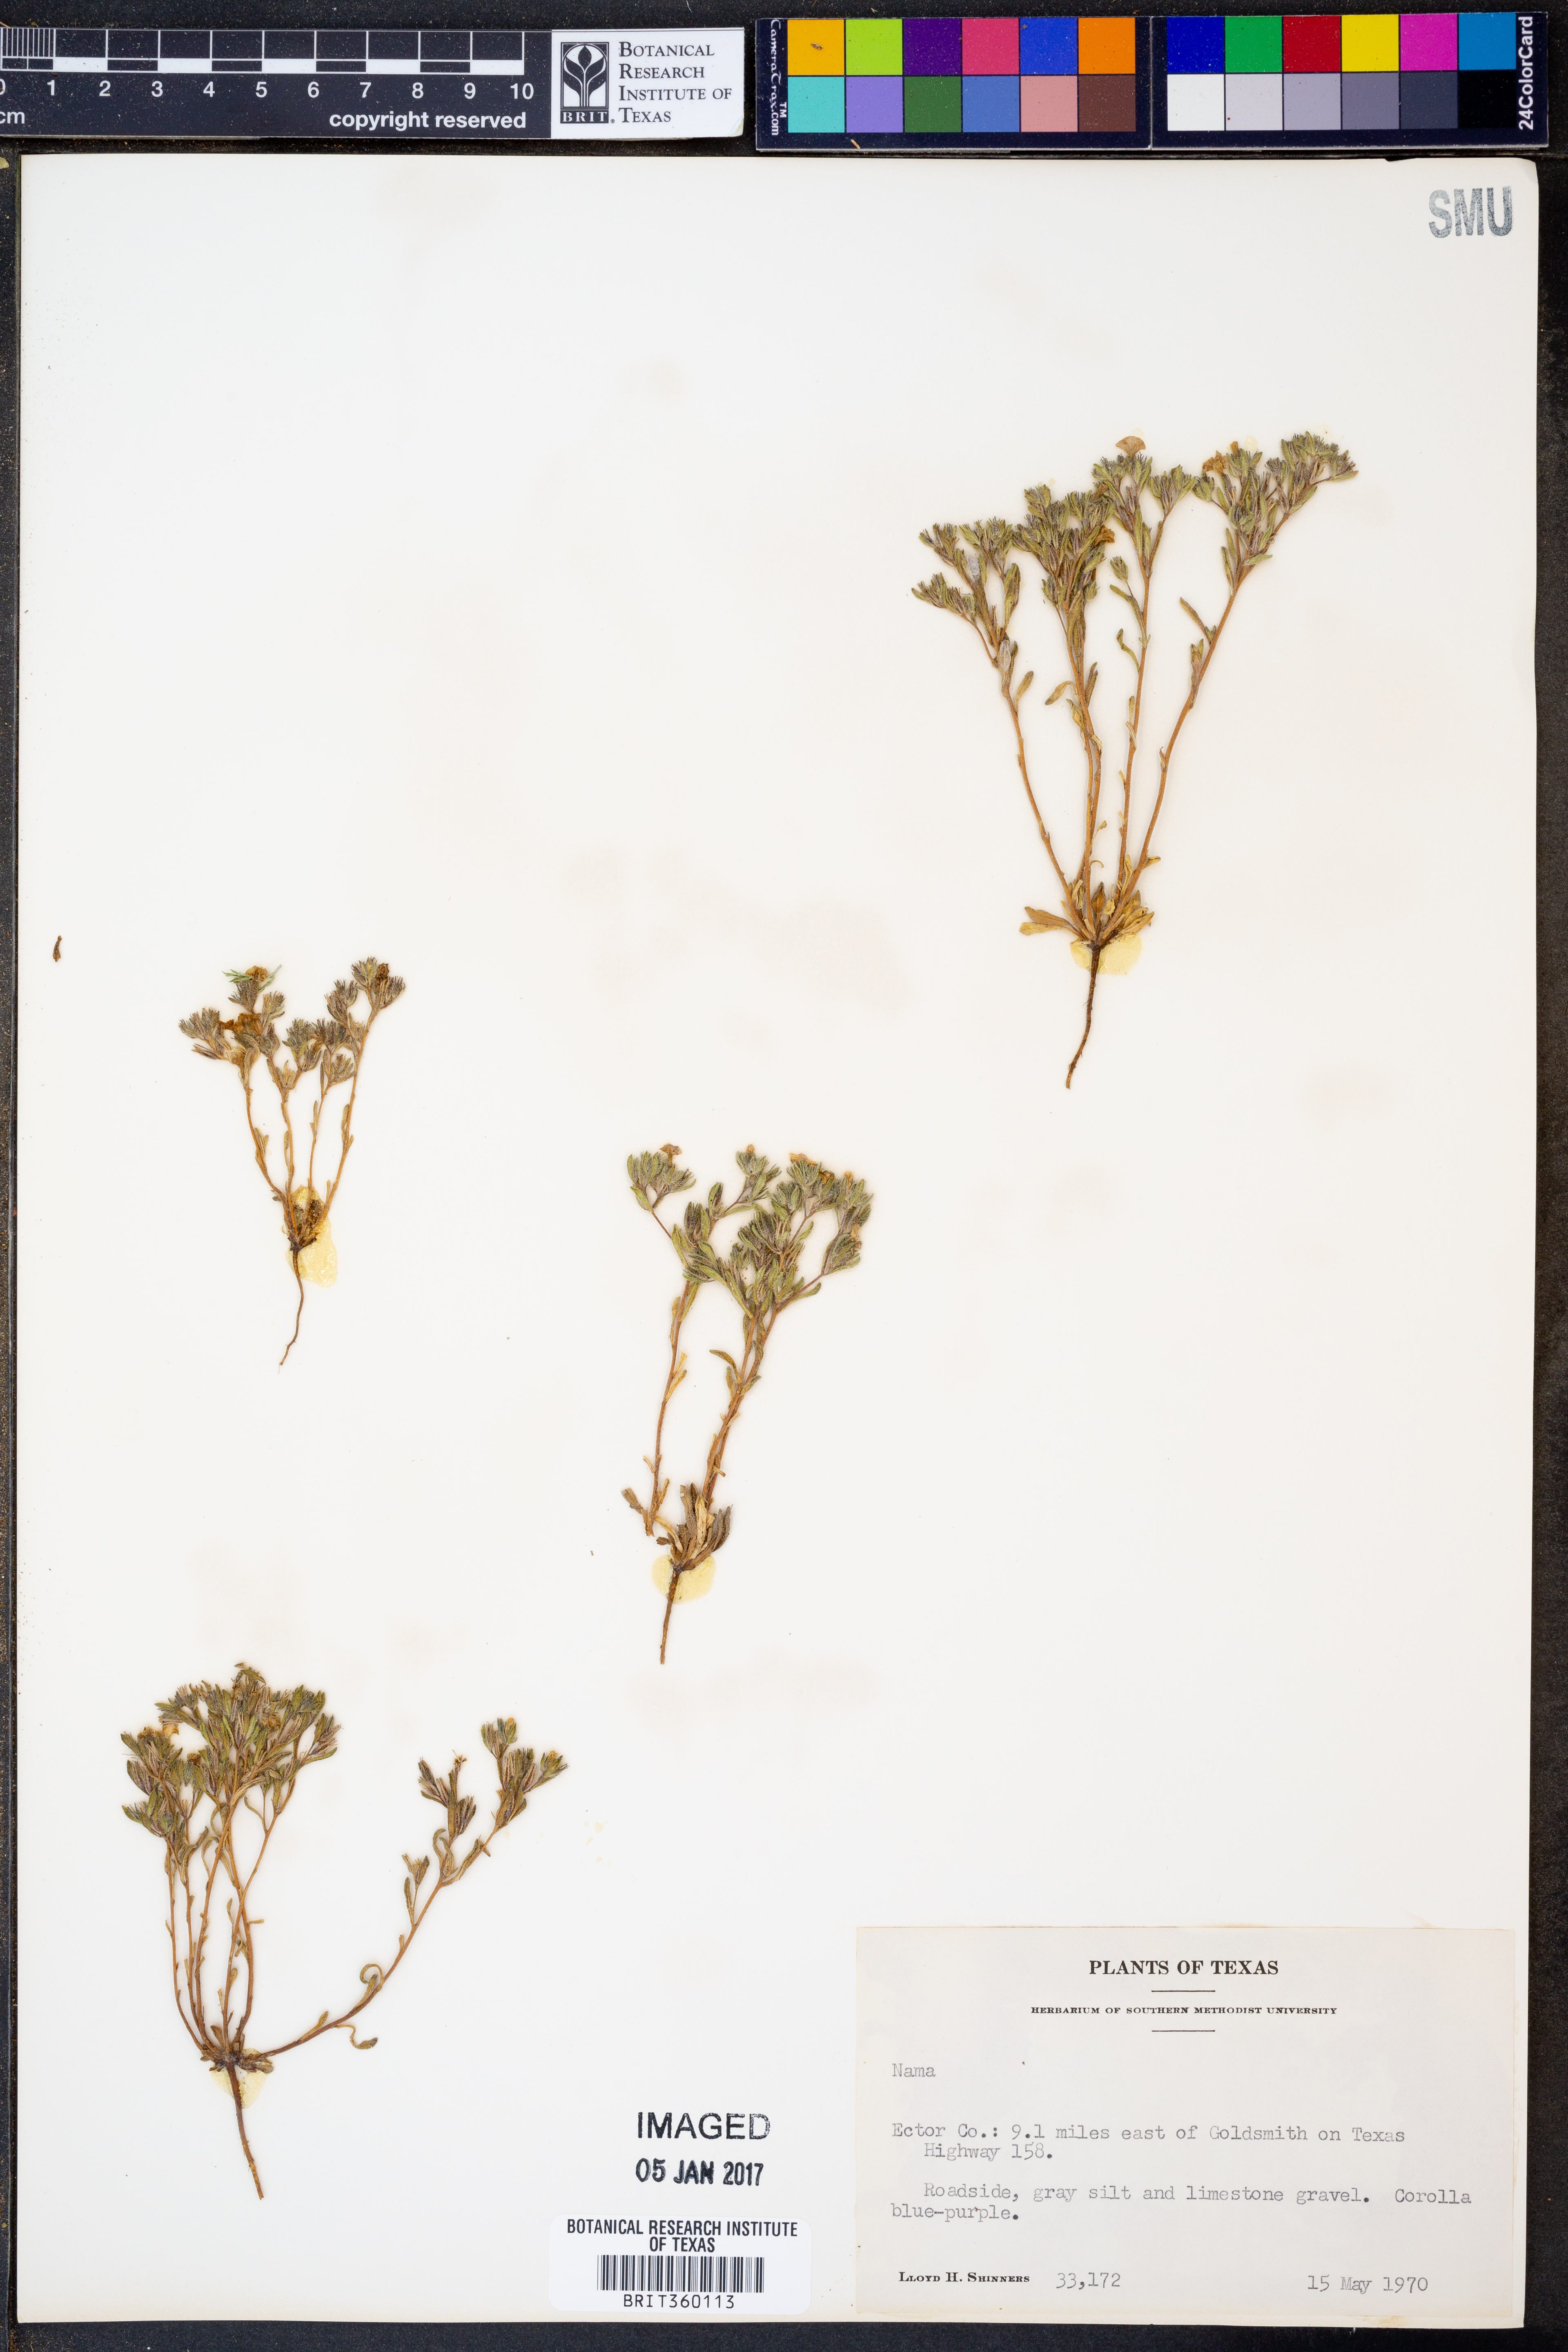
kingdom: Plantae
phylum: Tracheophyta
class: Magnoliopsida
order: Boraginales
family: Namaceae
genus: Nama
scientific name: Nama
